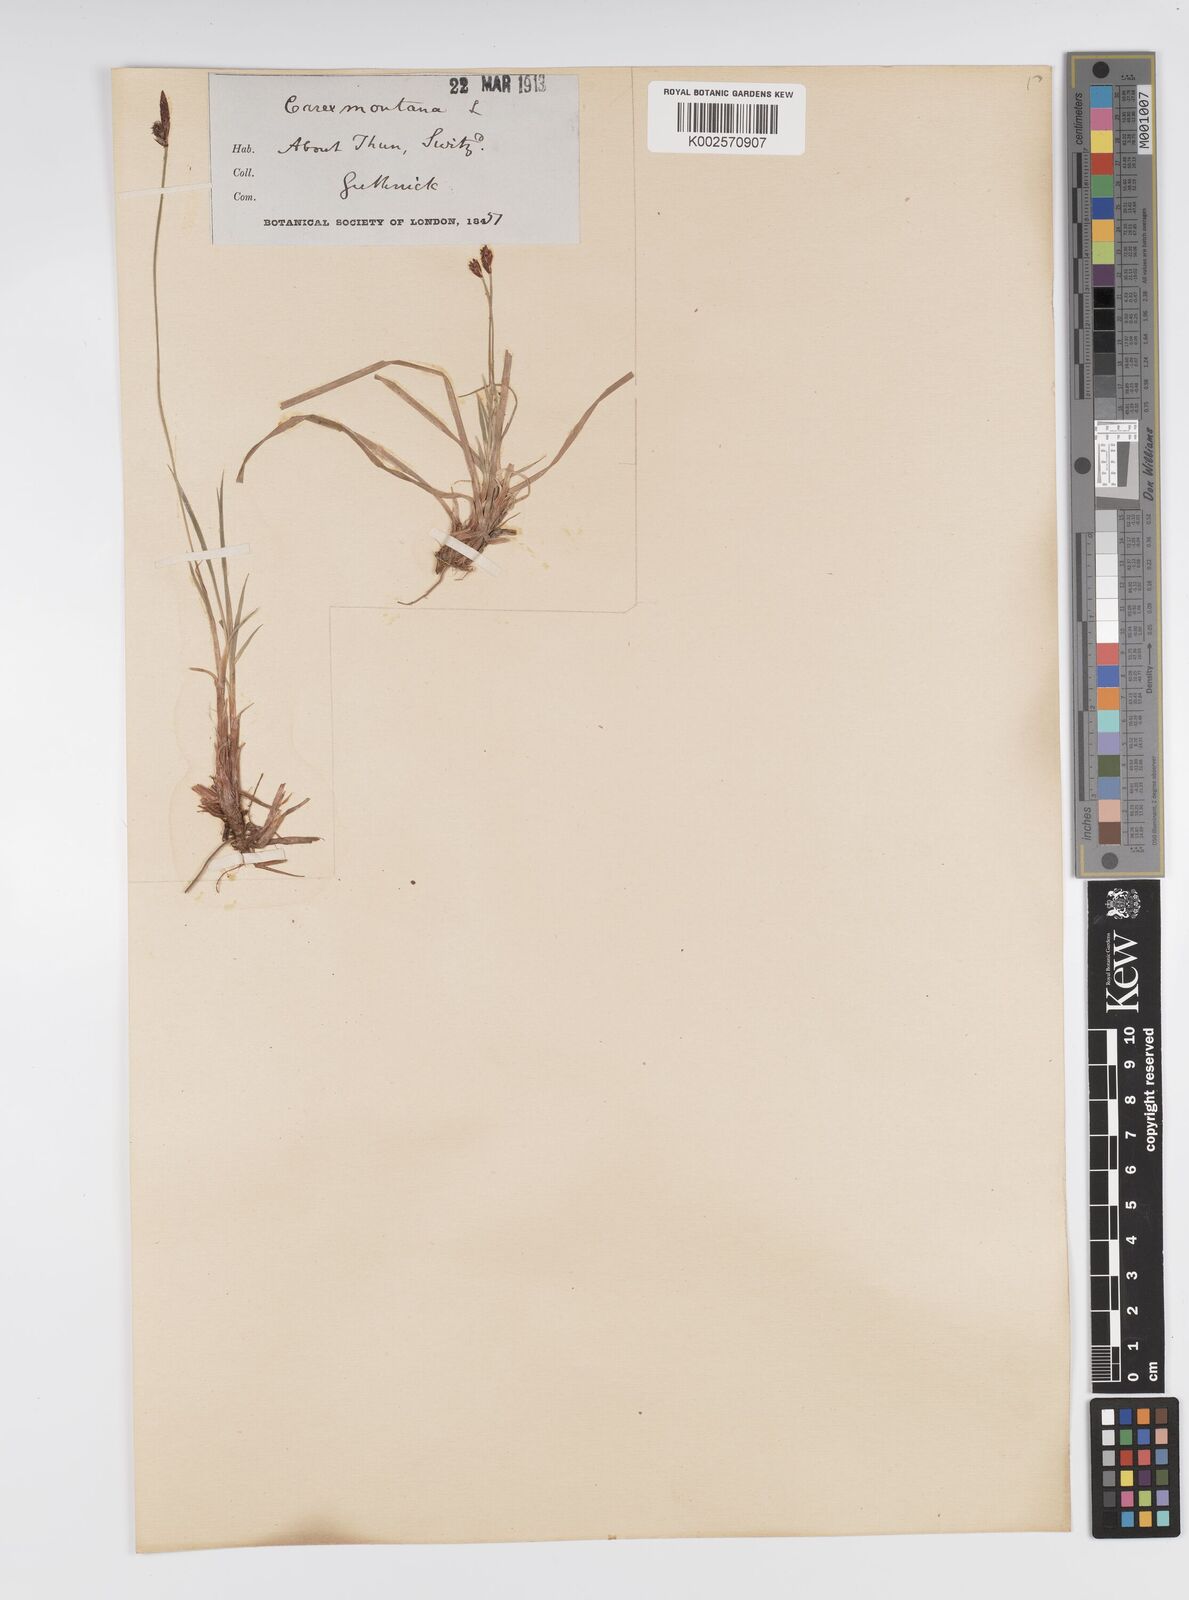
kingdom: Plantae
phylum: Tracheophyta
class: Liliopsida
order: Poales
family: Cyperaceae
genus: Carex
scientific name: Carex montana
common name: Soft-leaved sedge
